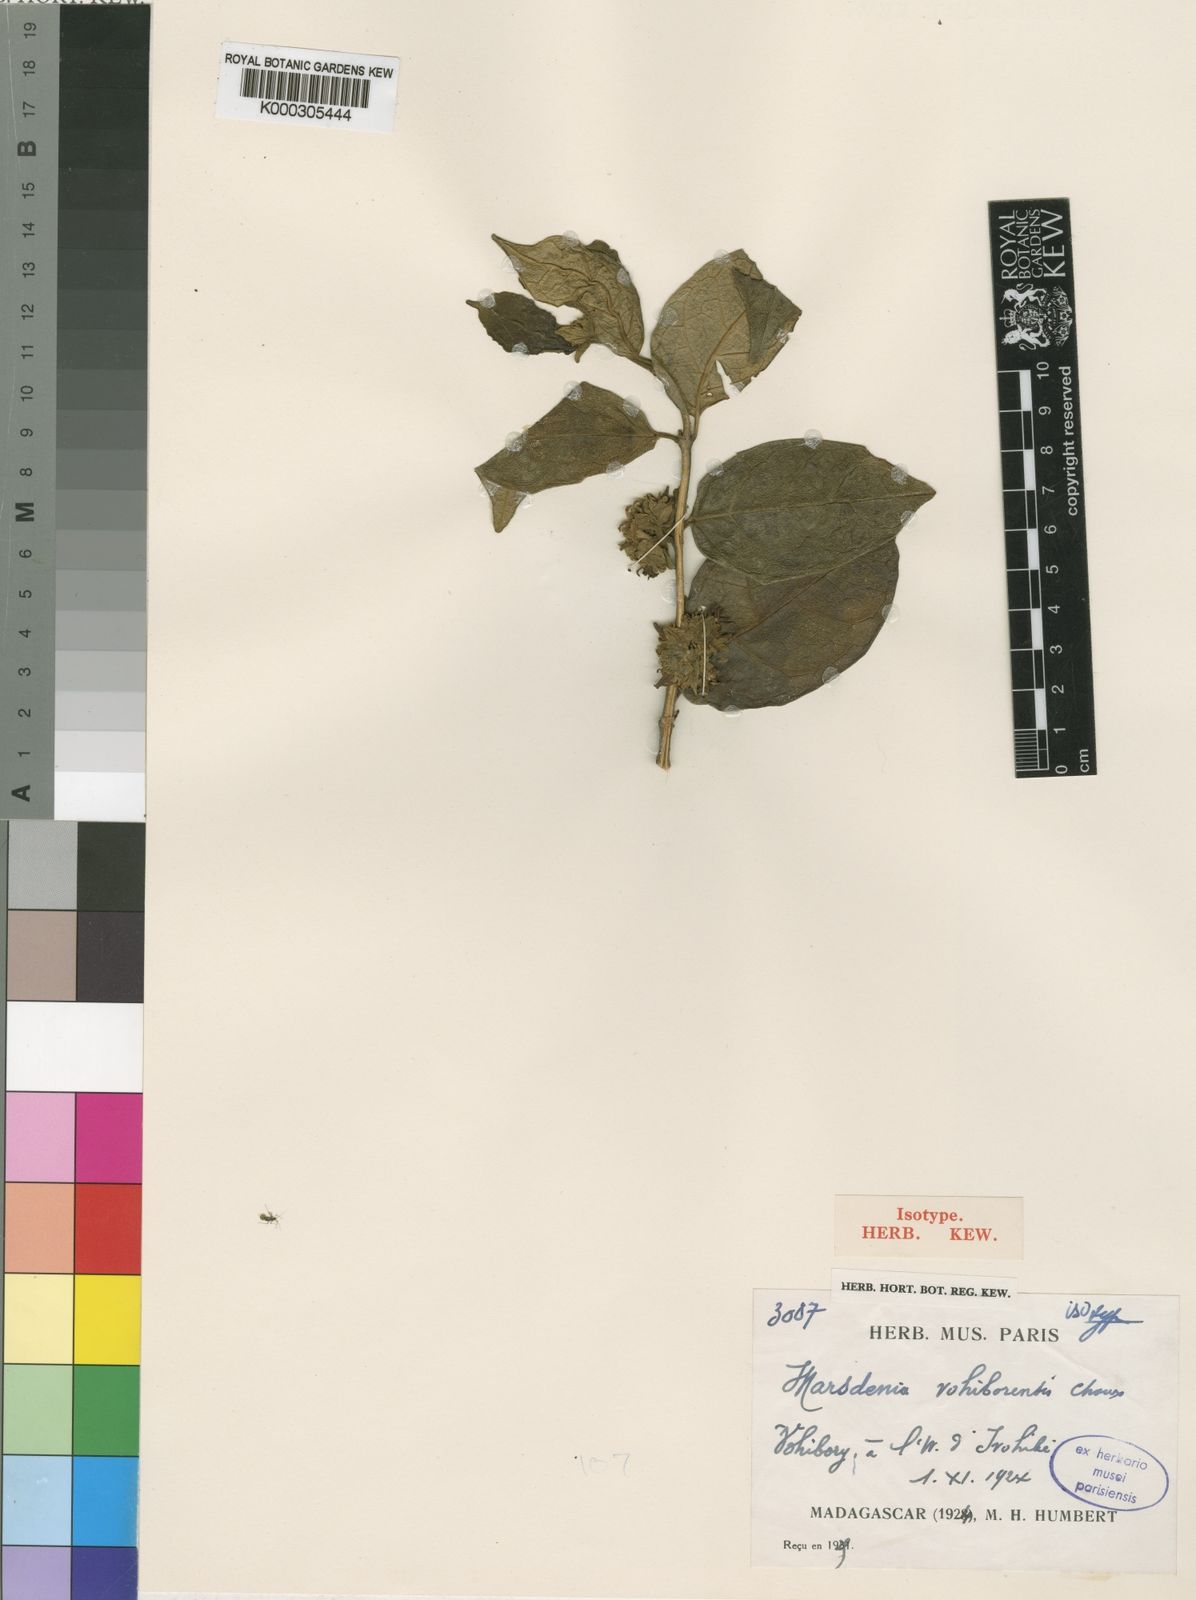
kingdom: Plantae
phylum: Tracheophyta
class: Magnoliopsida
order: Gentianales
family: Apocynaceae
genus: Marsdenia
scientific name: Marsdenia vohiborensis
